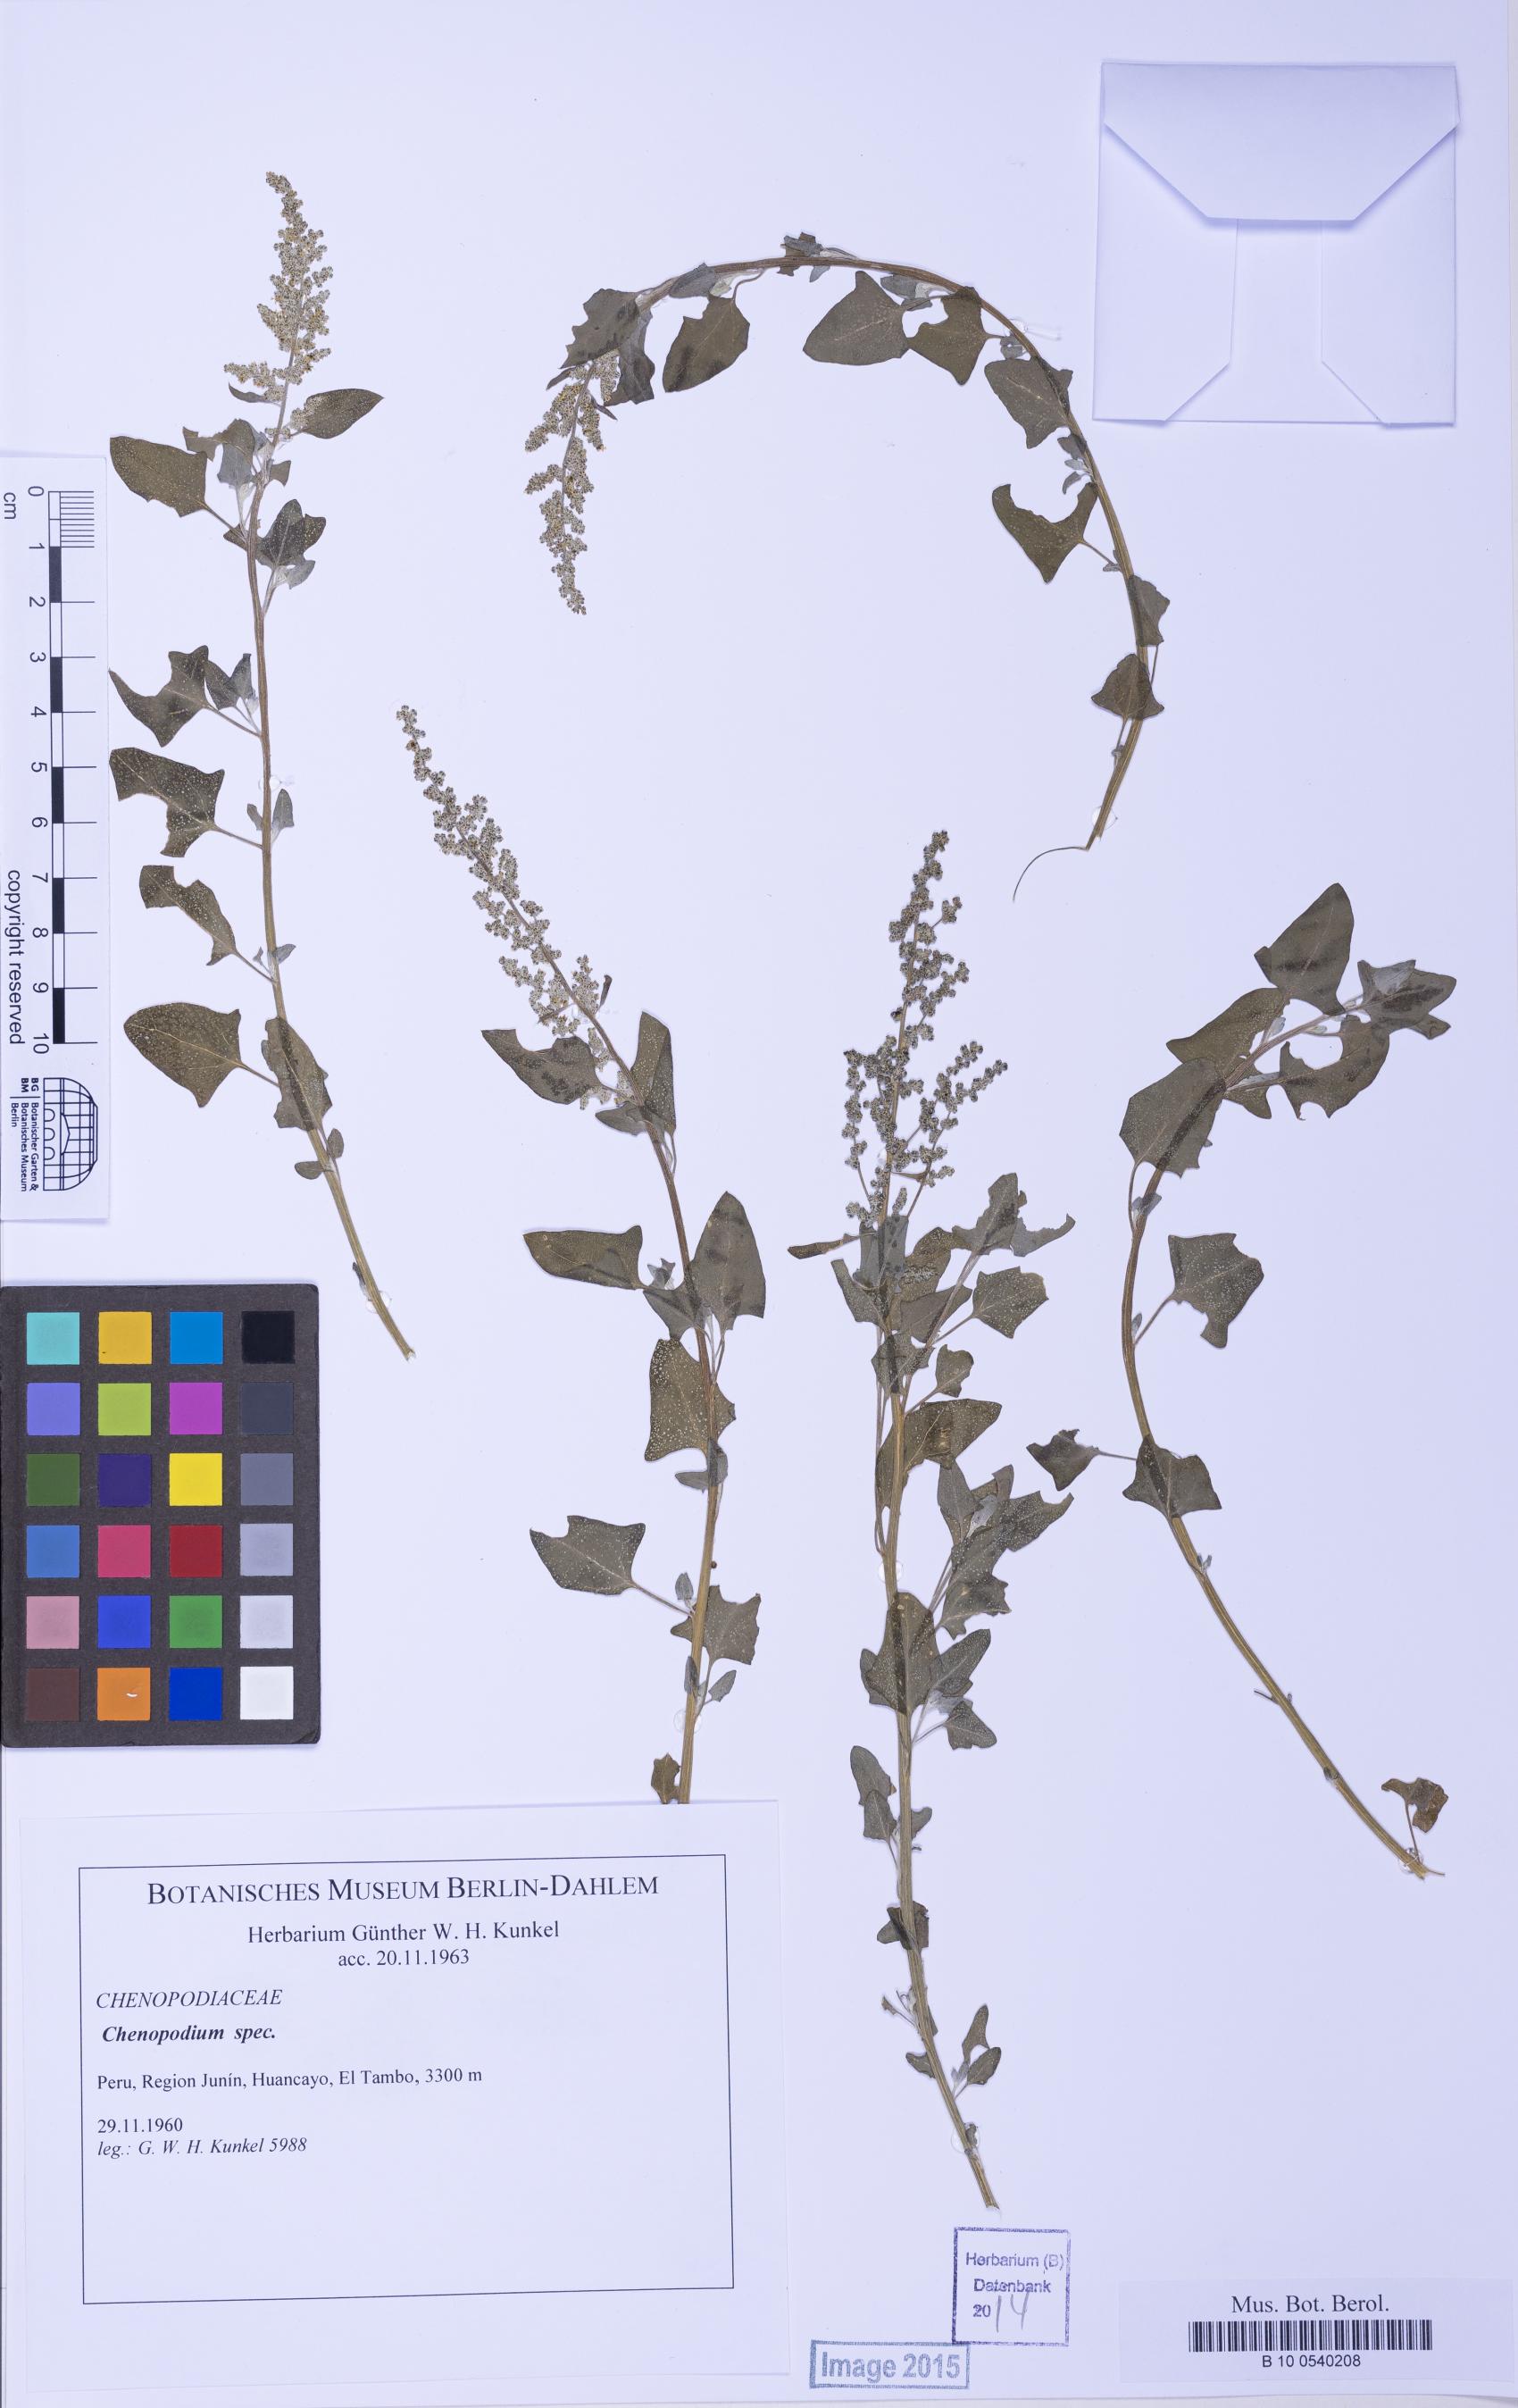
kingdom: Plantae
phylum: Tracheophyta
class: Magnoliopsida
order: Caryophyllales
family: Amaranthaceae
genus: Chenopodium
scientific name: Chenopodium
